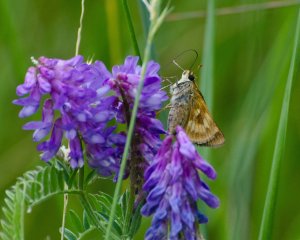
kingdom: Animalia
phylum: Arthropoda
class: Insecta
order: Lepidoptera
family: Hesperiidae
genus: Polites
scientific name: Polites
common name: Long Dash Skipper
